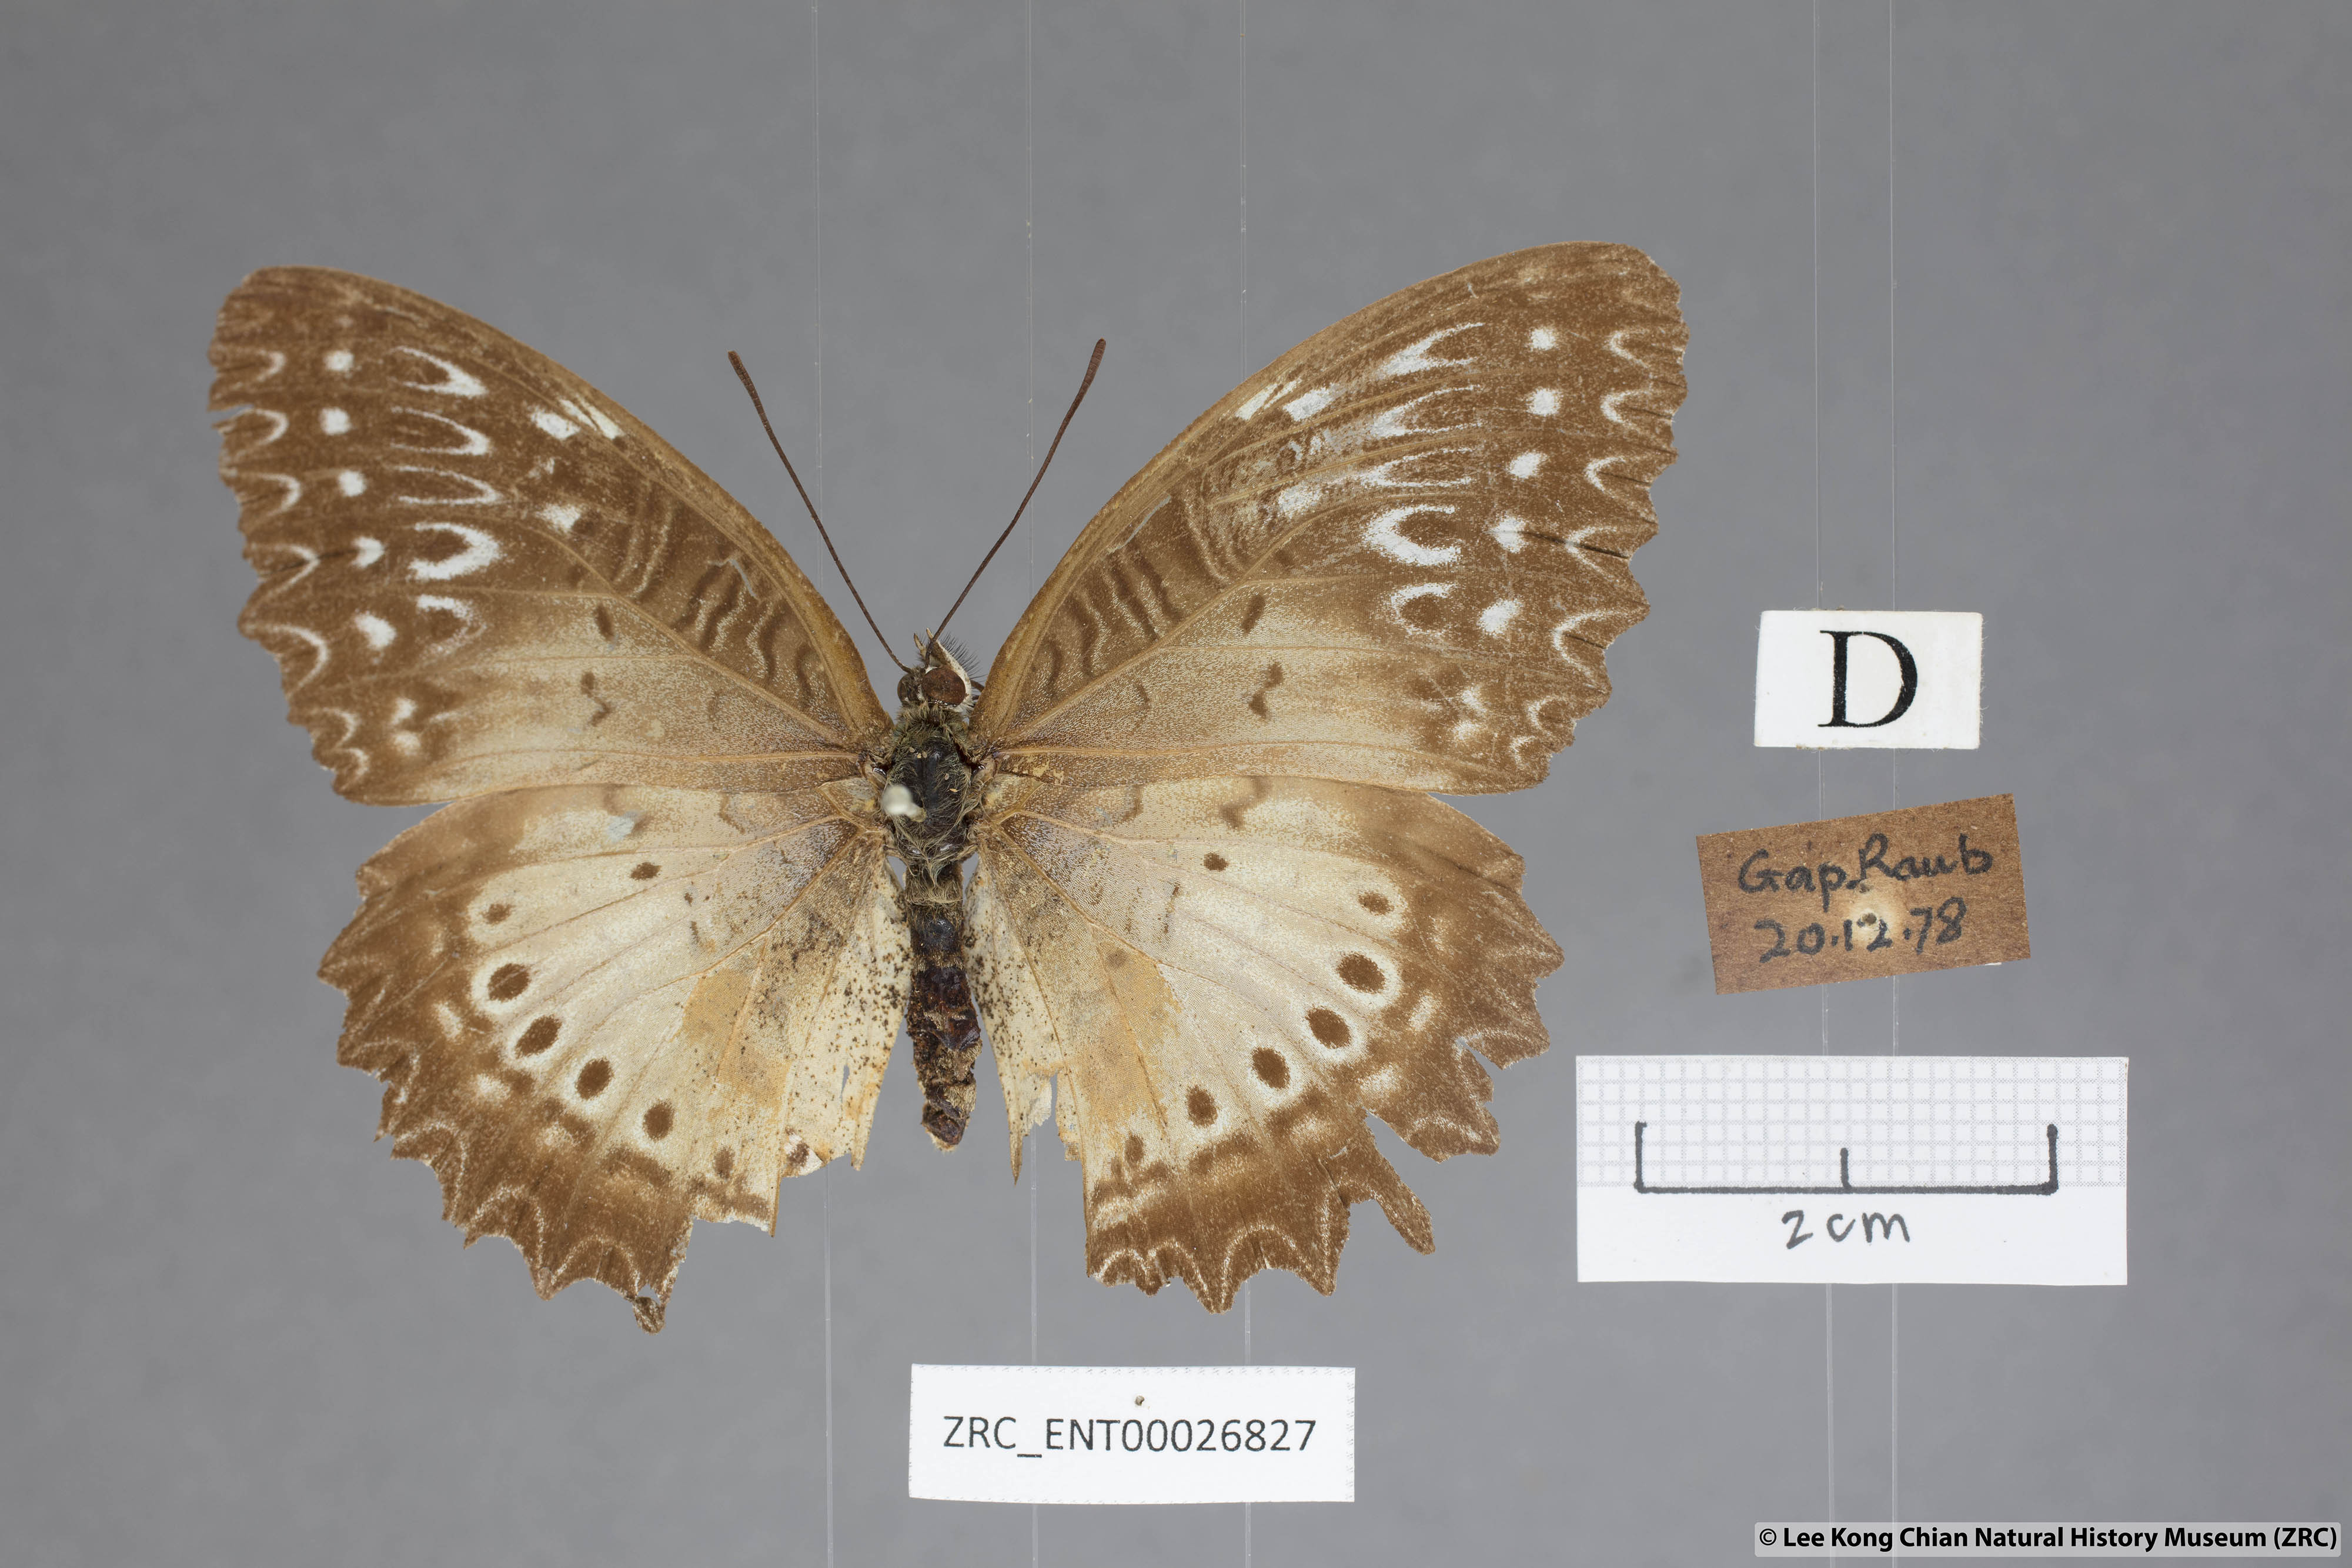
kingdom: Animalia
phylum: Arthropoda
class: Insecta
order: Lepidoptera
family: Nymphalidae
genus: Cethosia
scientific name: Cethosia biblis
